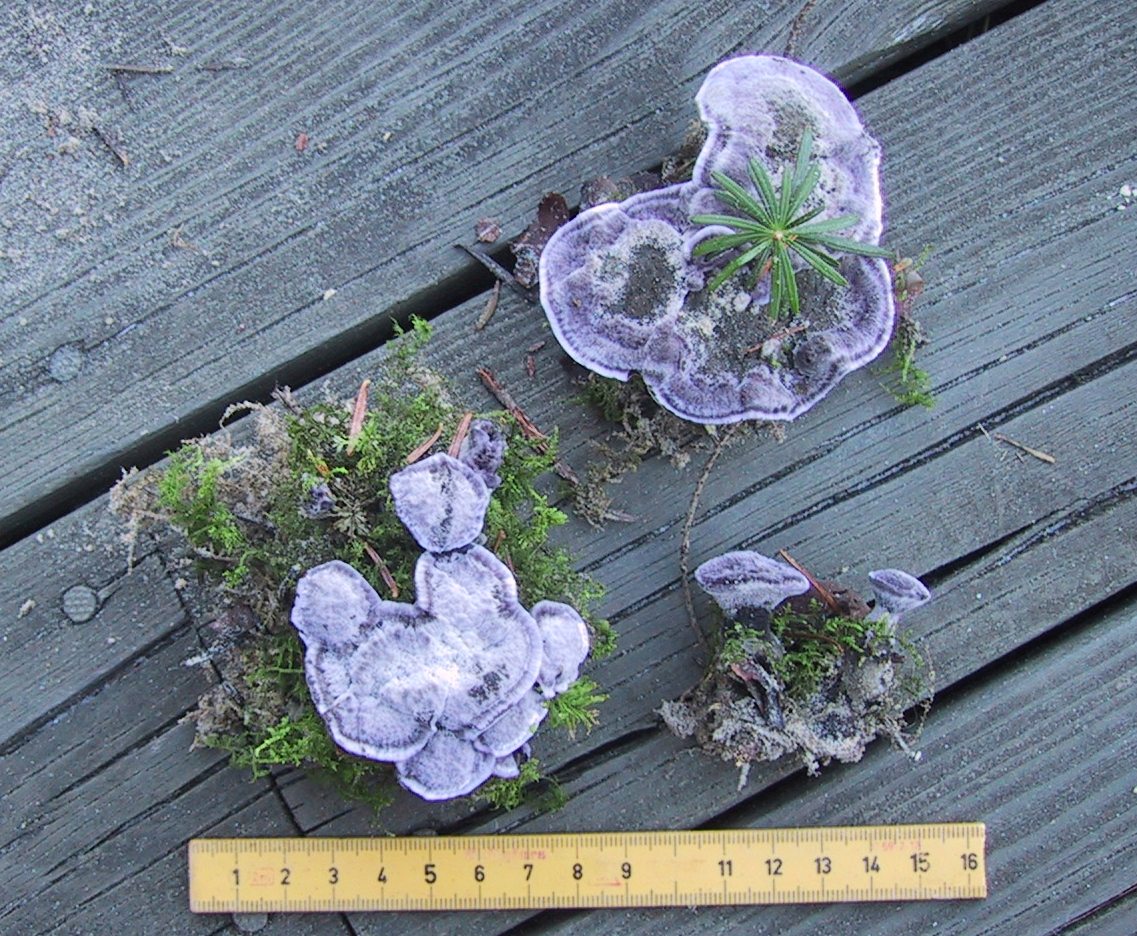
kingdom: Fungi
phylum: Basidiomycota
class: Agaricomycetes
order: Thelephorales
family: Thelephoraceae
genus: Phellodon
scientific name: Phellodon
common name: mørk duftpigsvamp
